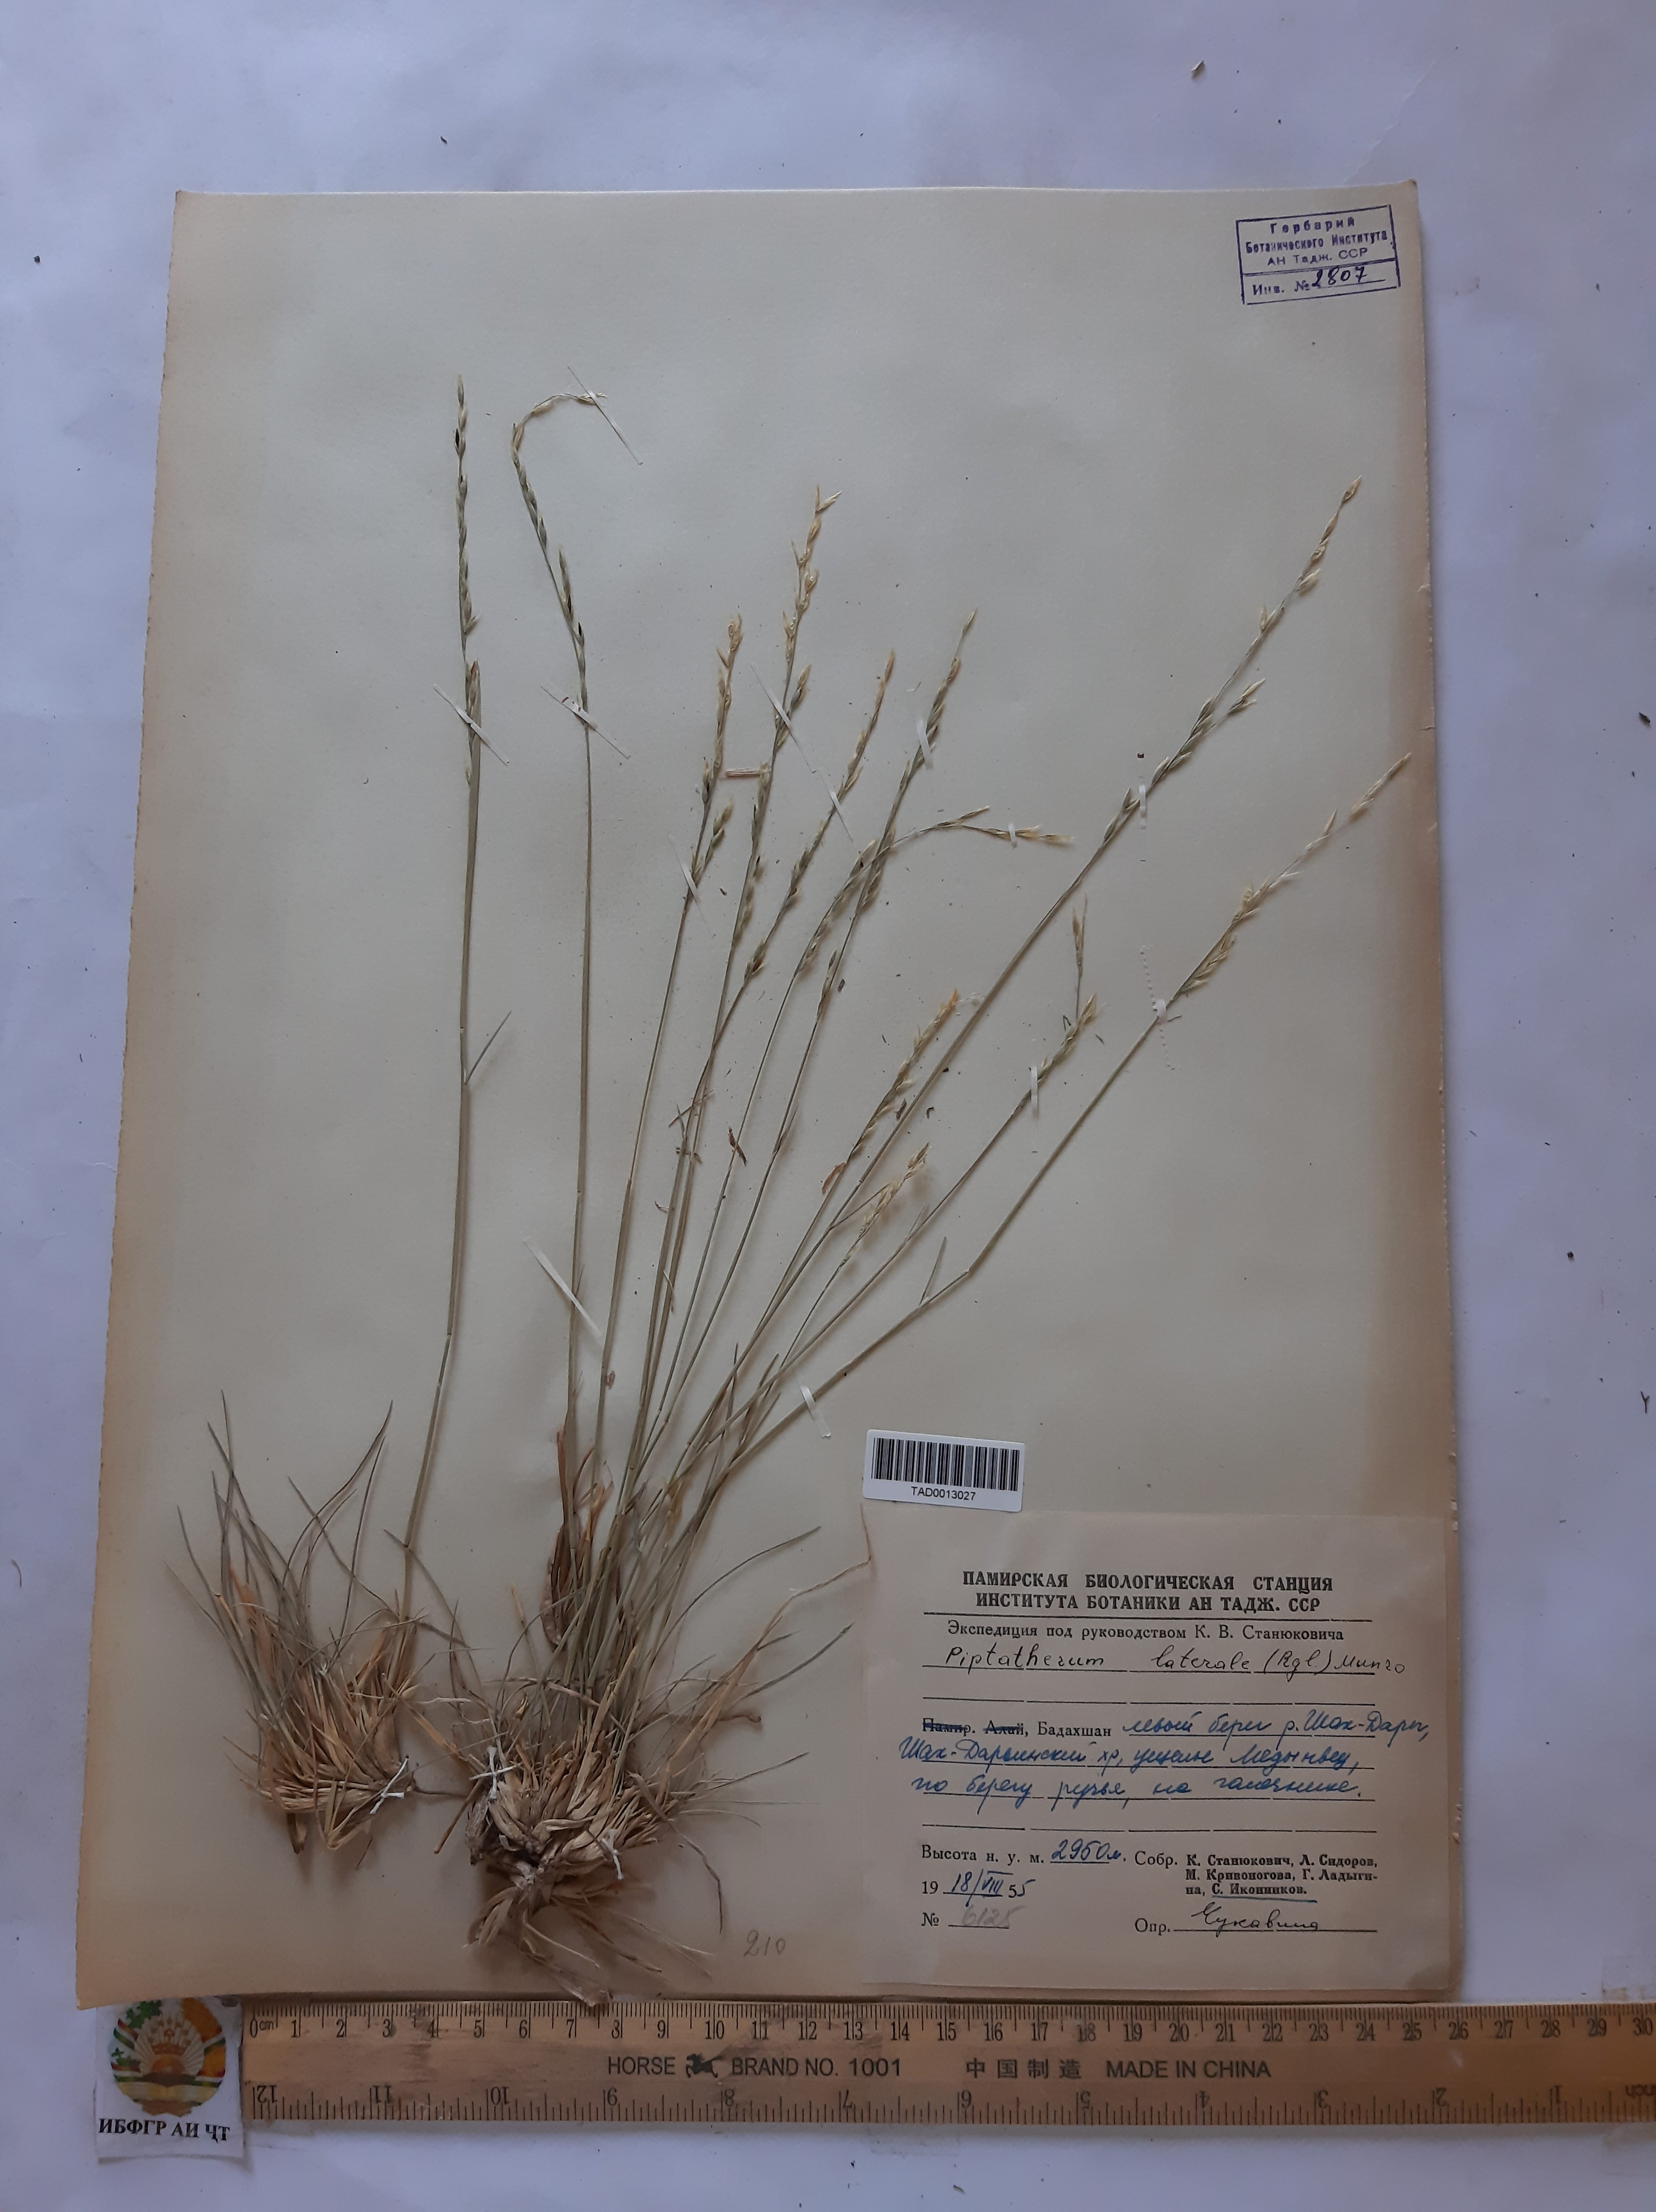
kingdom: Plantae
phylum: Tracheophyta
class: Liliopsida
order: Poales
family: Poaceae
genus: Piptatherum
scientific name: Piptatherum laterale
